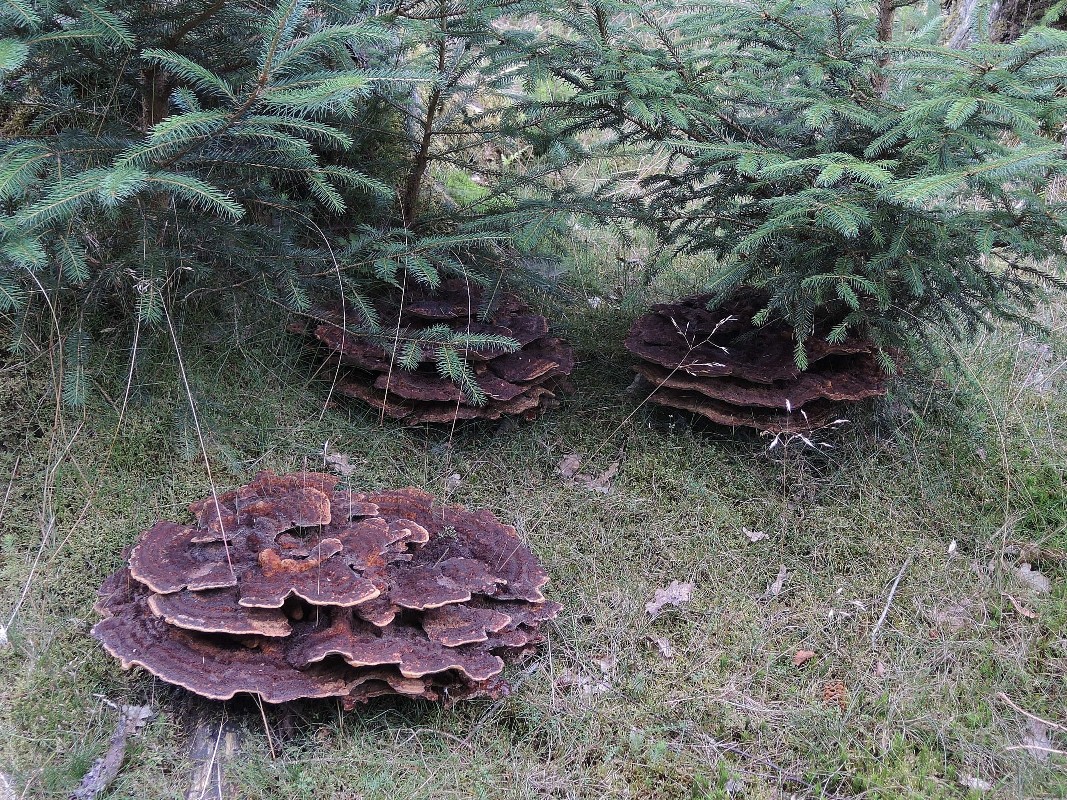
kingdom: Fungi
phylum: Basidiomycota
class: Agaricomycetes
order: Polyporales
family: Laetiporaceae
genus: Phaeolus
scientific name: Phaeolus schweinitzii
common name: brunporesvamp
